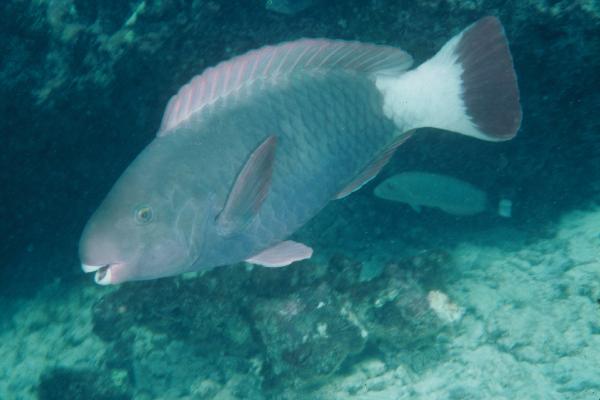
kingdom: Animalia
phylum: Chordata
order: Perciformes
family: Scaridae
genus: Chlorurus
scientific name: Chlorurus perspicillatus
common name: Spectacled parrotfish
